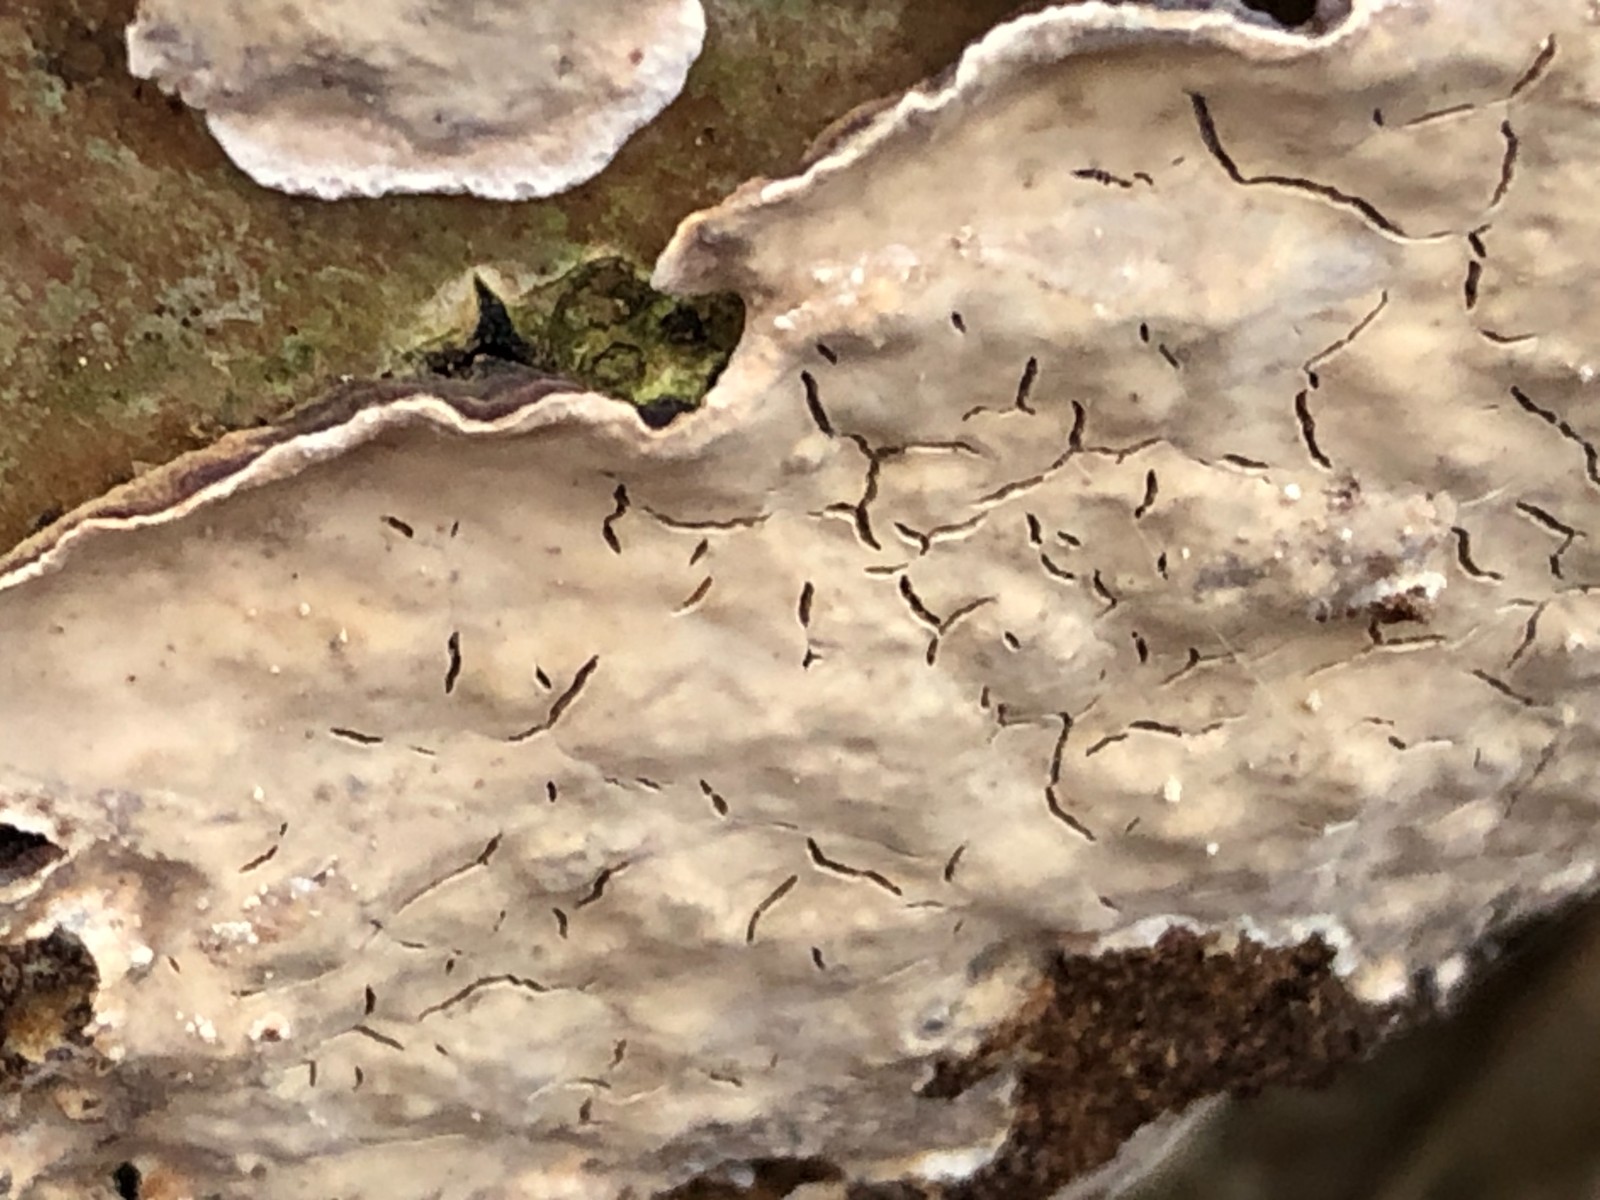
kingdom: Fungi
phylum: Basidiomycota
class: Agaricomycetes
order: Agaricales
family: Physalacriaceae
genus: Cylindrobasidium
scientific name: Cylindrobasidium evolvens
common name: sprækkehinde
